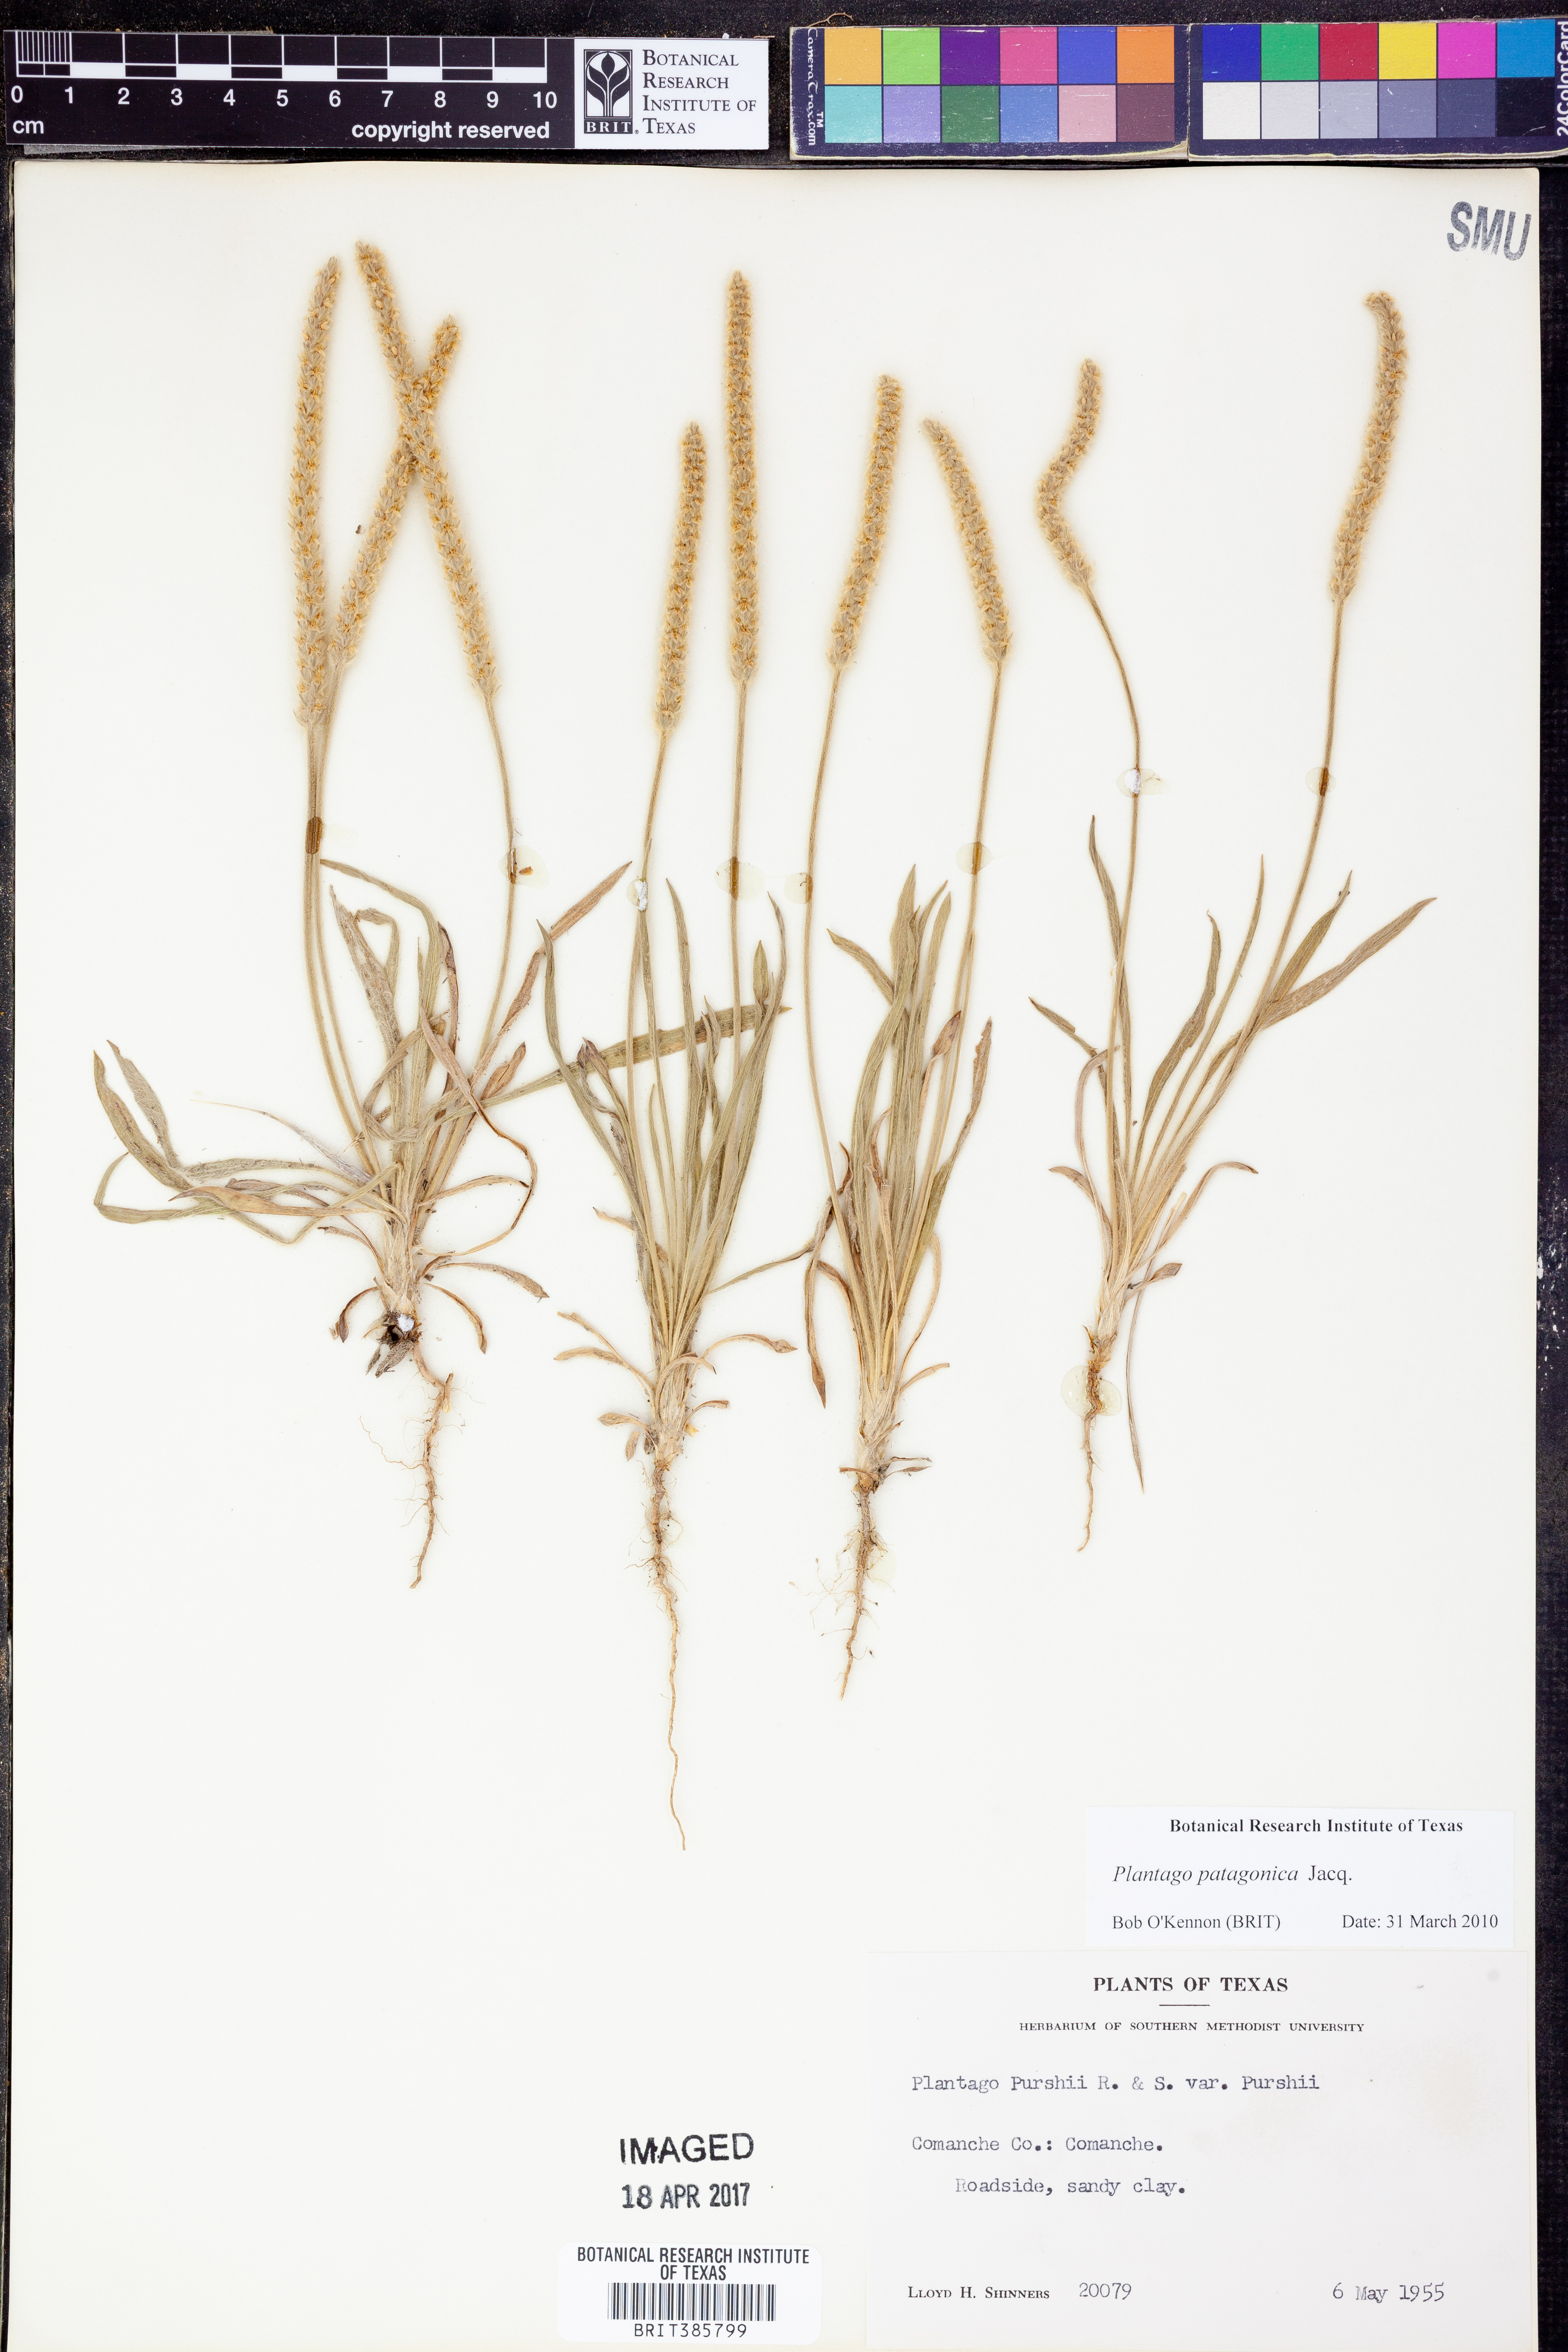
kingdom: Plantae
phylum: Tracheophyta
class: Magnoliopsida
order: Lamiales
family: Plantaginaceae
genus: Plantago
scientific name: Plantago patagonica
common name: Patagonia indian-wheat
